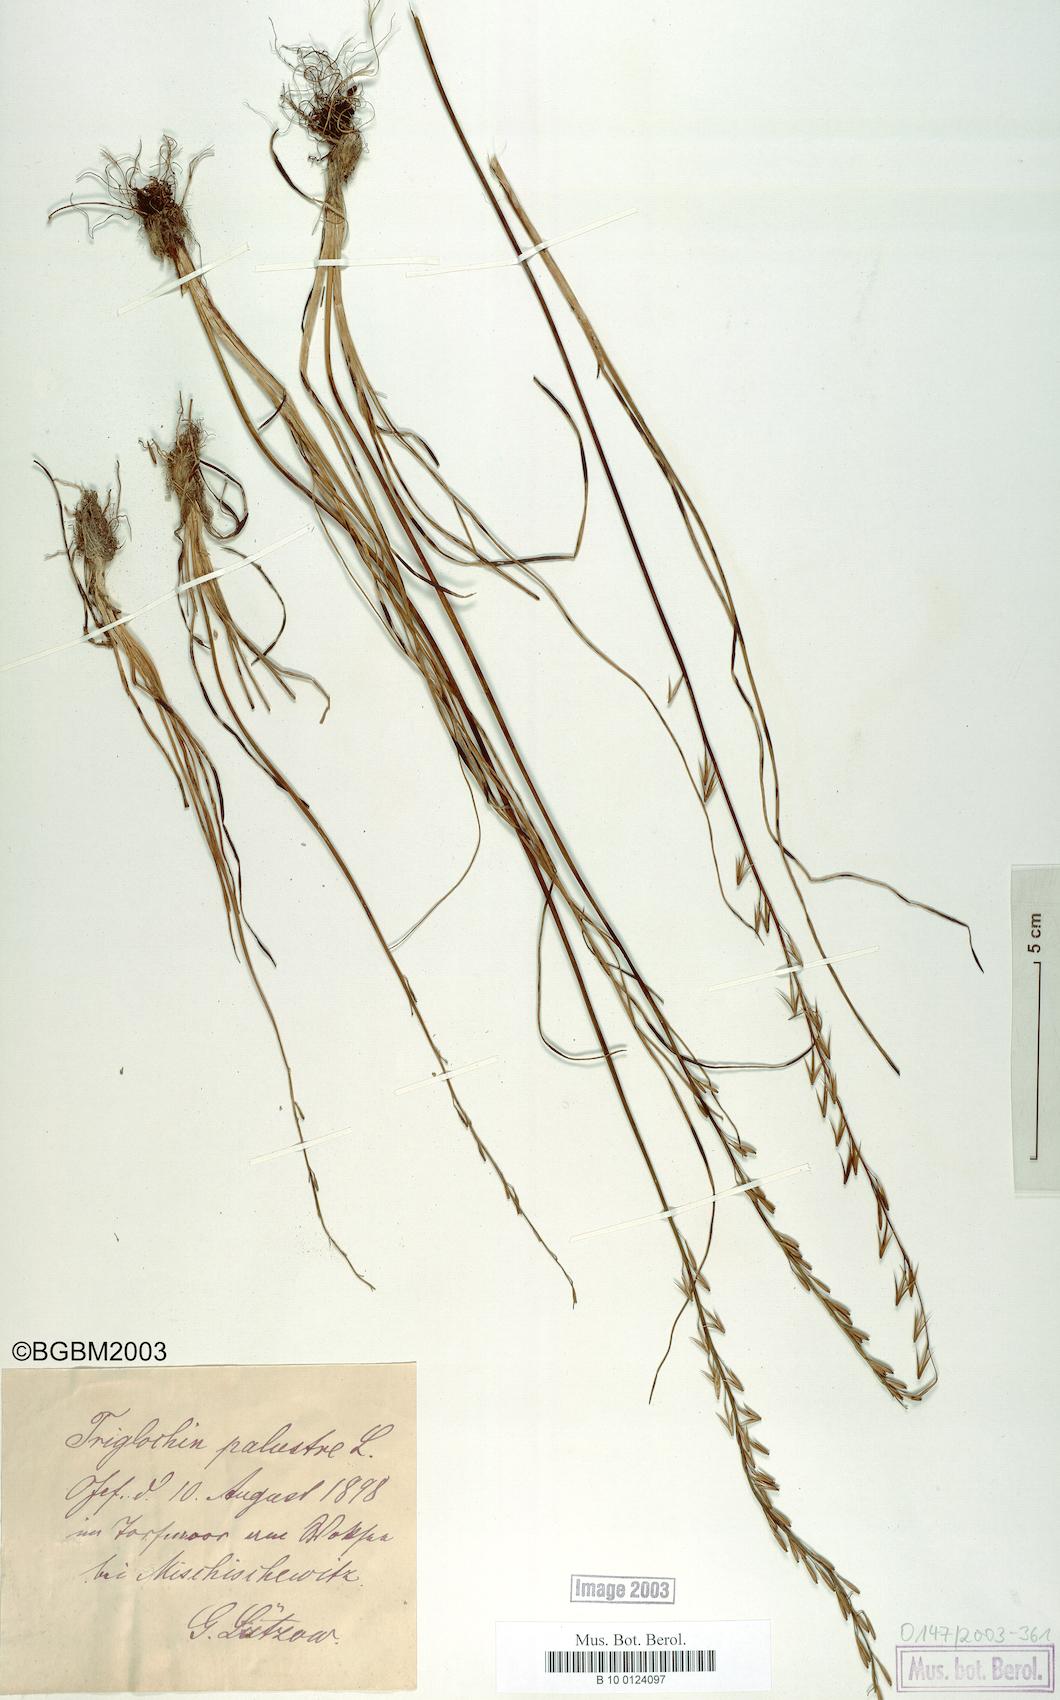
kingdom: Plantae
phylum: Tracheophyta
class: Liliopsida
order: Alismatales
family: Juncaginaceae
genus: Triglochin
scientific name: Triglochin palustris
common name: Marsh arrowgrass
